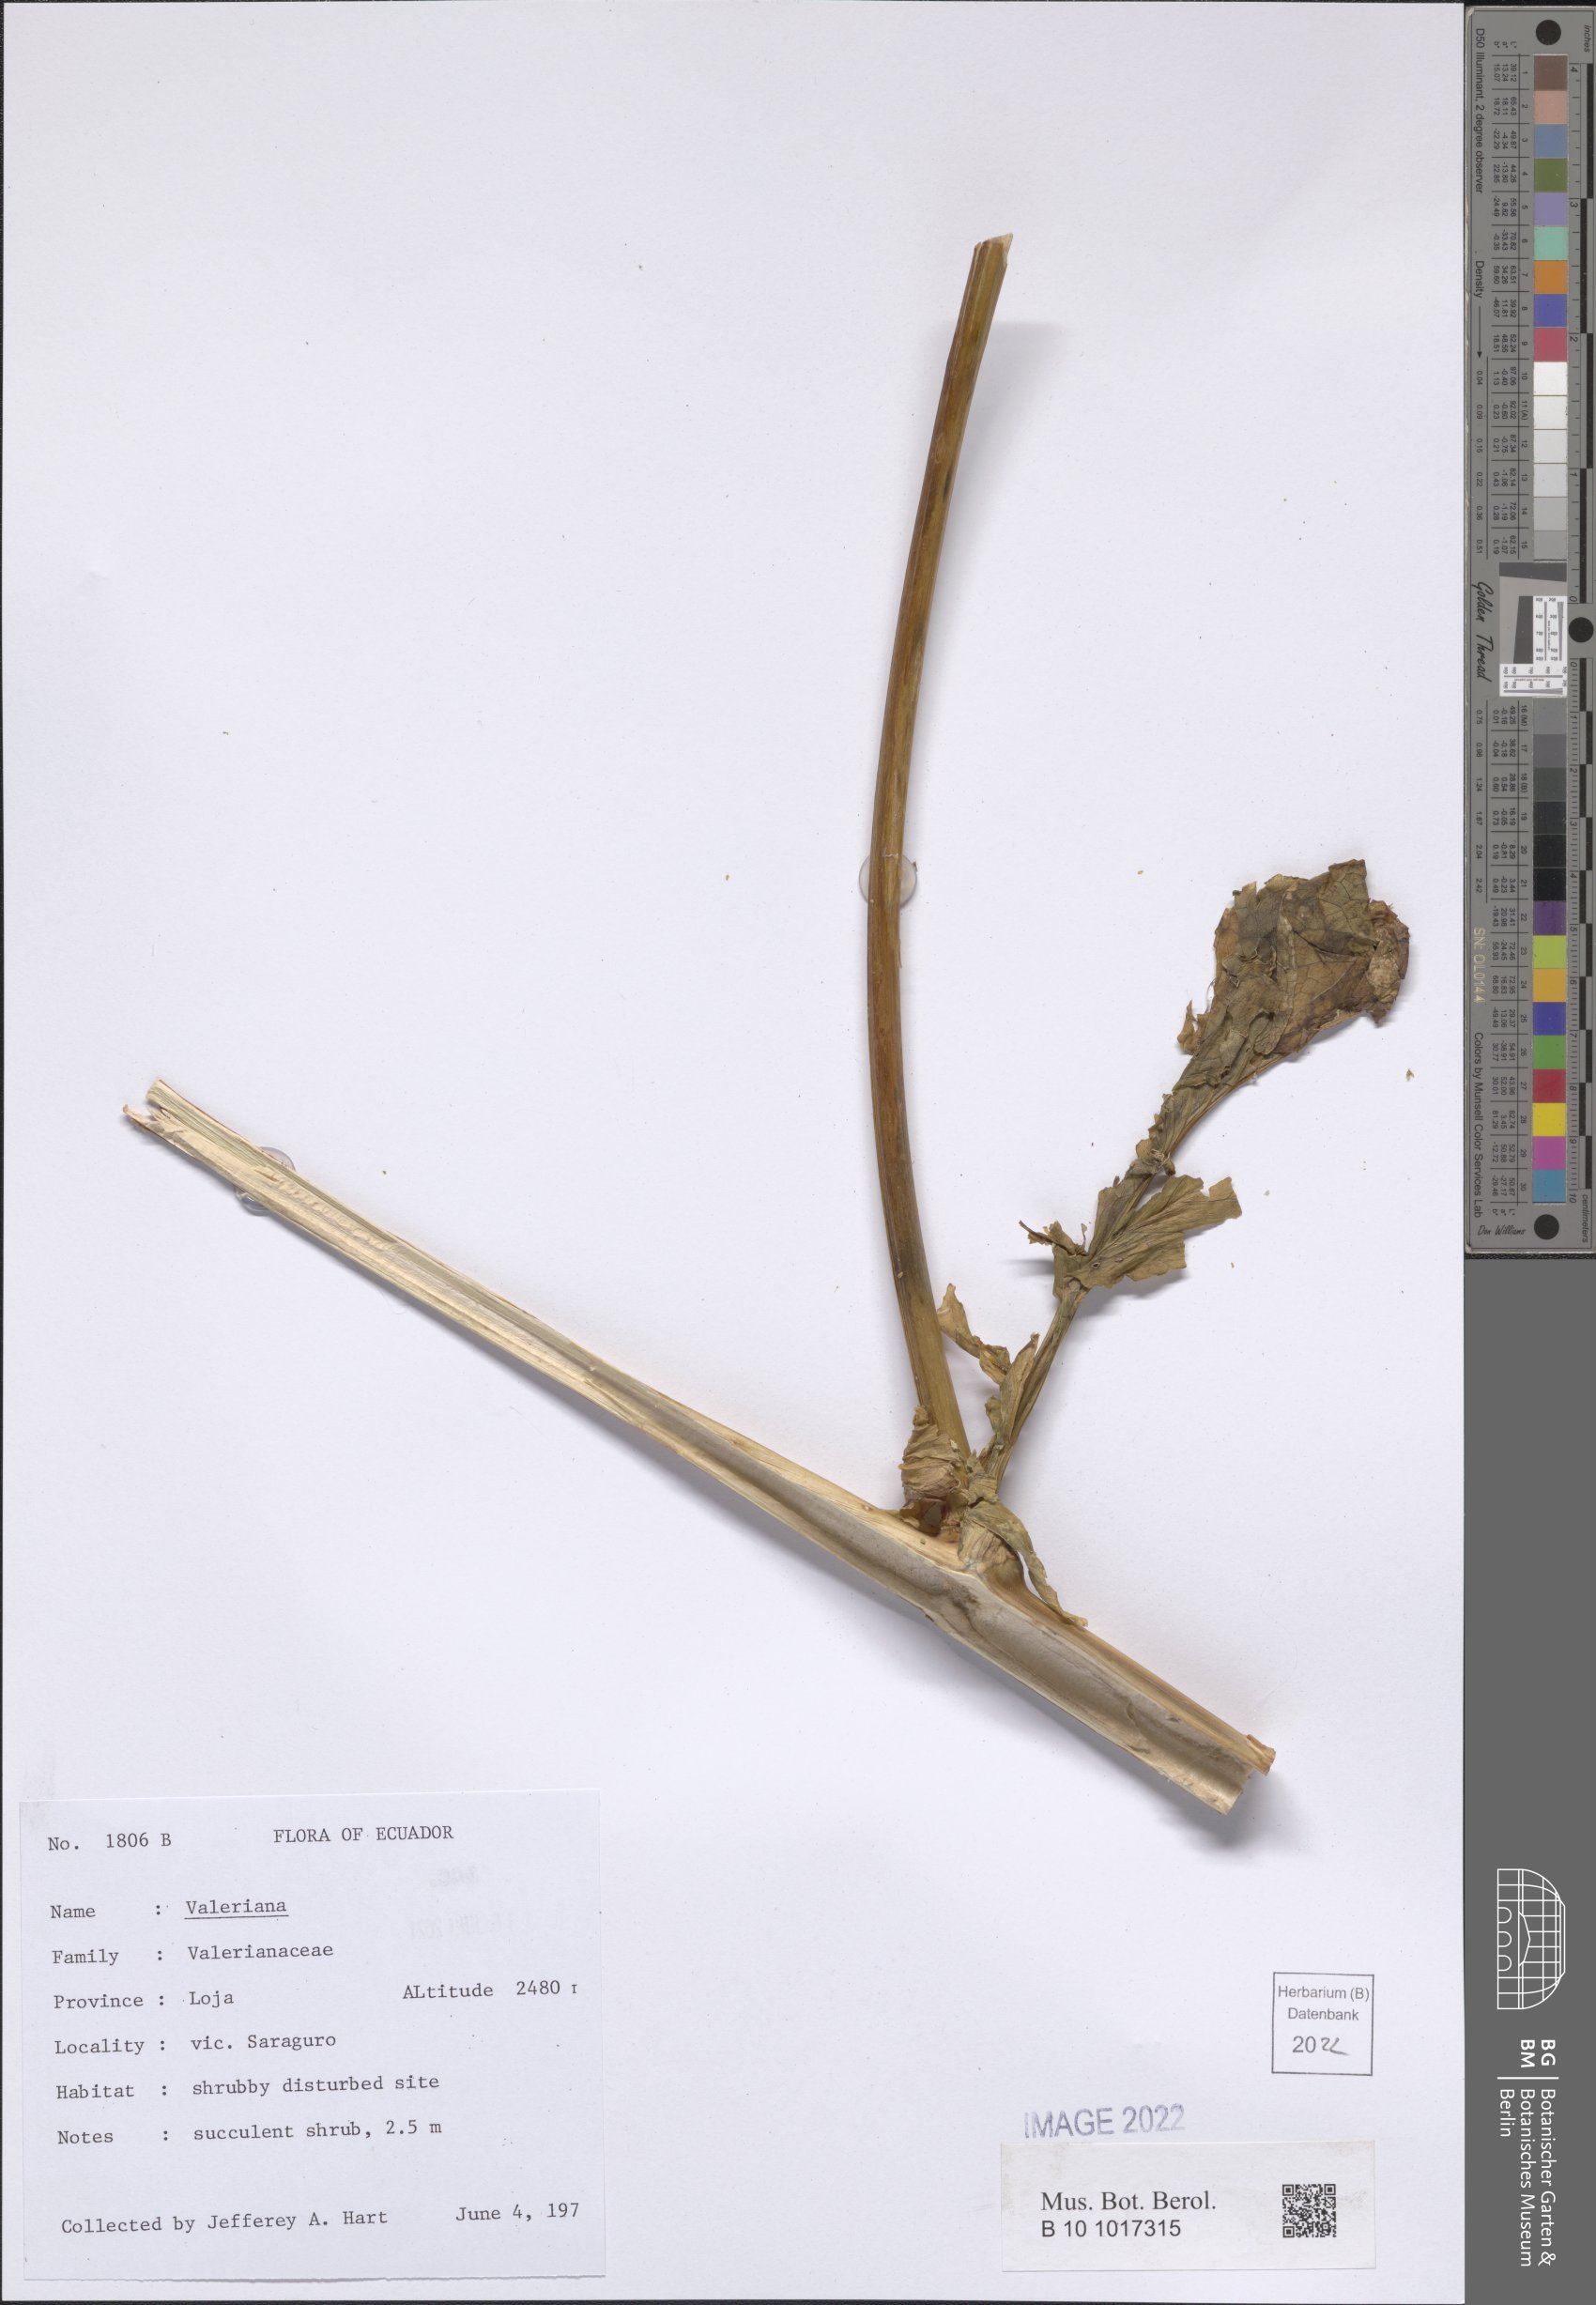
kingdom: Plantae
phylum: Tracheophyta
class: Magnoliopsida
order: Dipsacales
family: Caprifoliaceae
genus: Valeriana
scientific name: Valeriana
